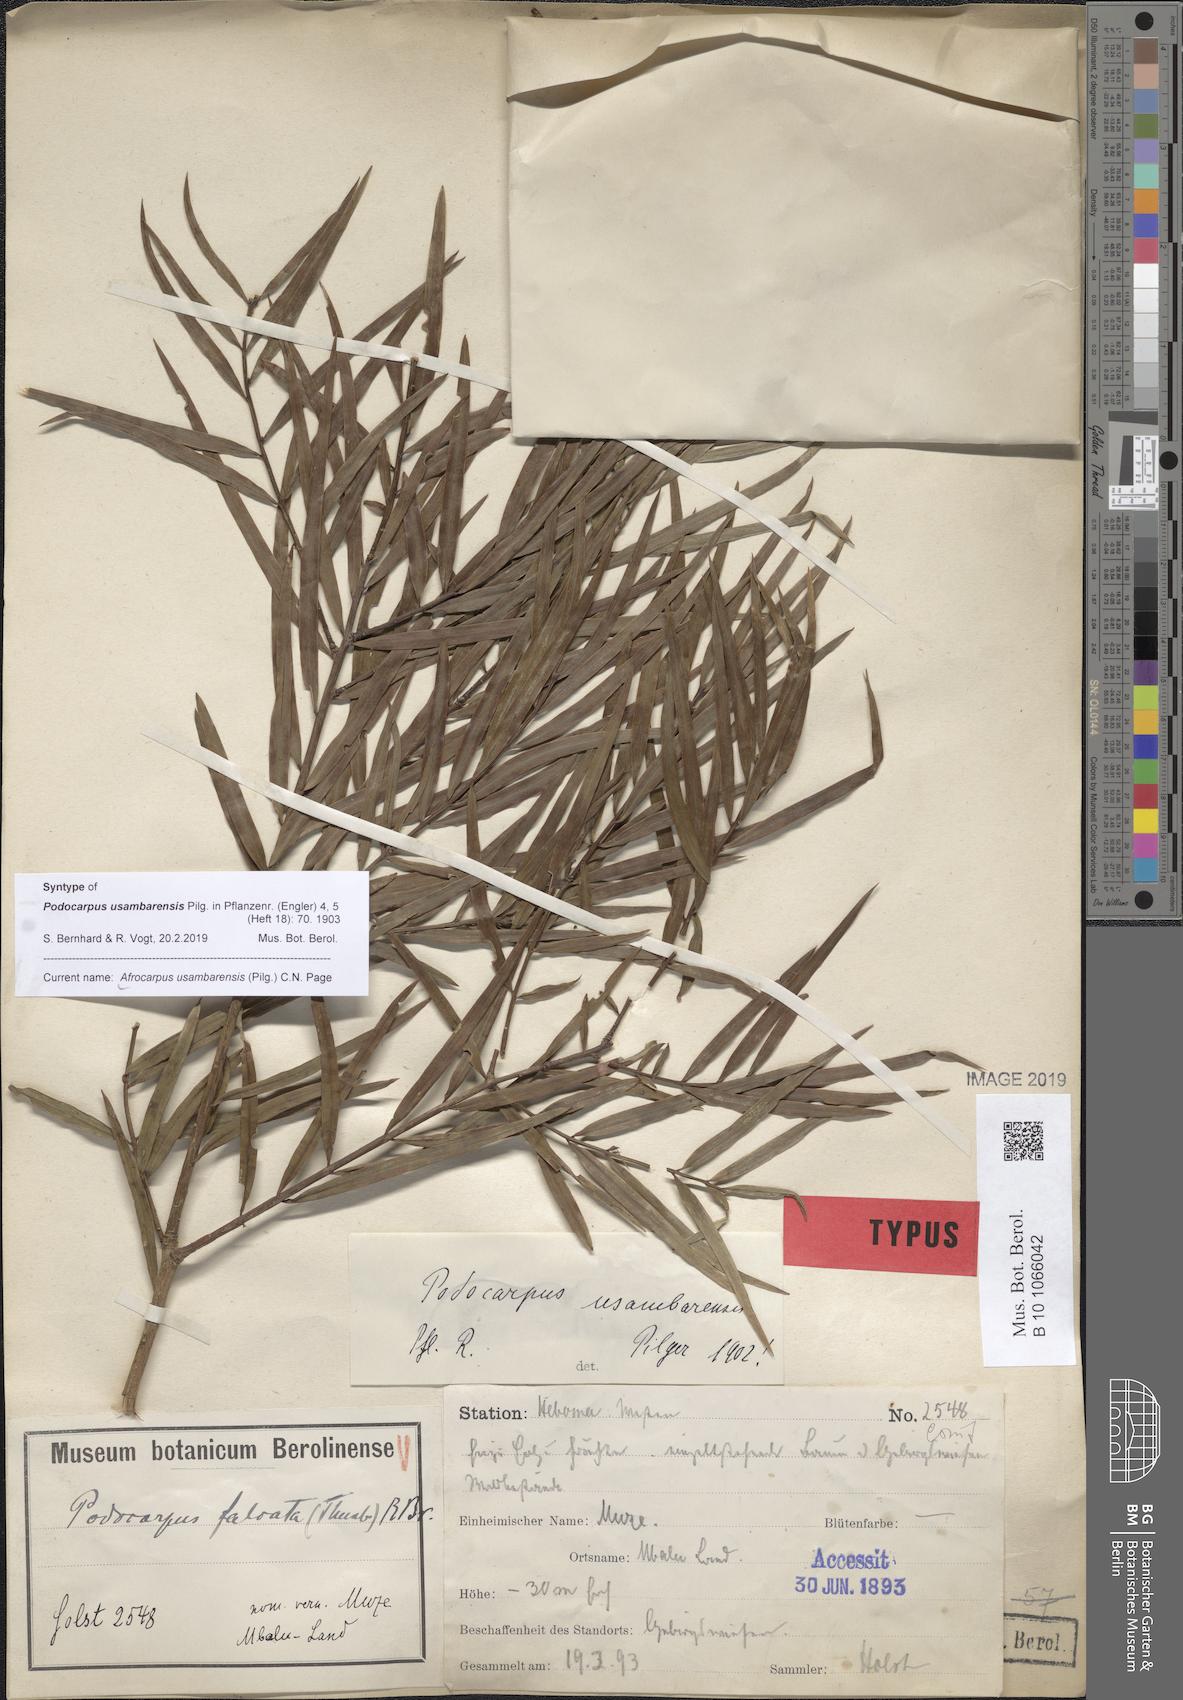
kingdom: Plantae
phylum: Tracheophyta
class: Pinopsida
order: Pinales
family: Podocarpaceae
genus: Afrocarpus
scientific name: Afrocarpus usambarensis
